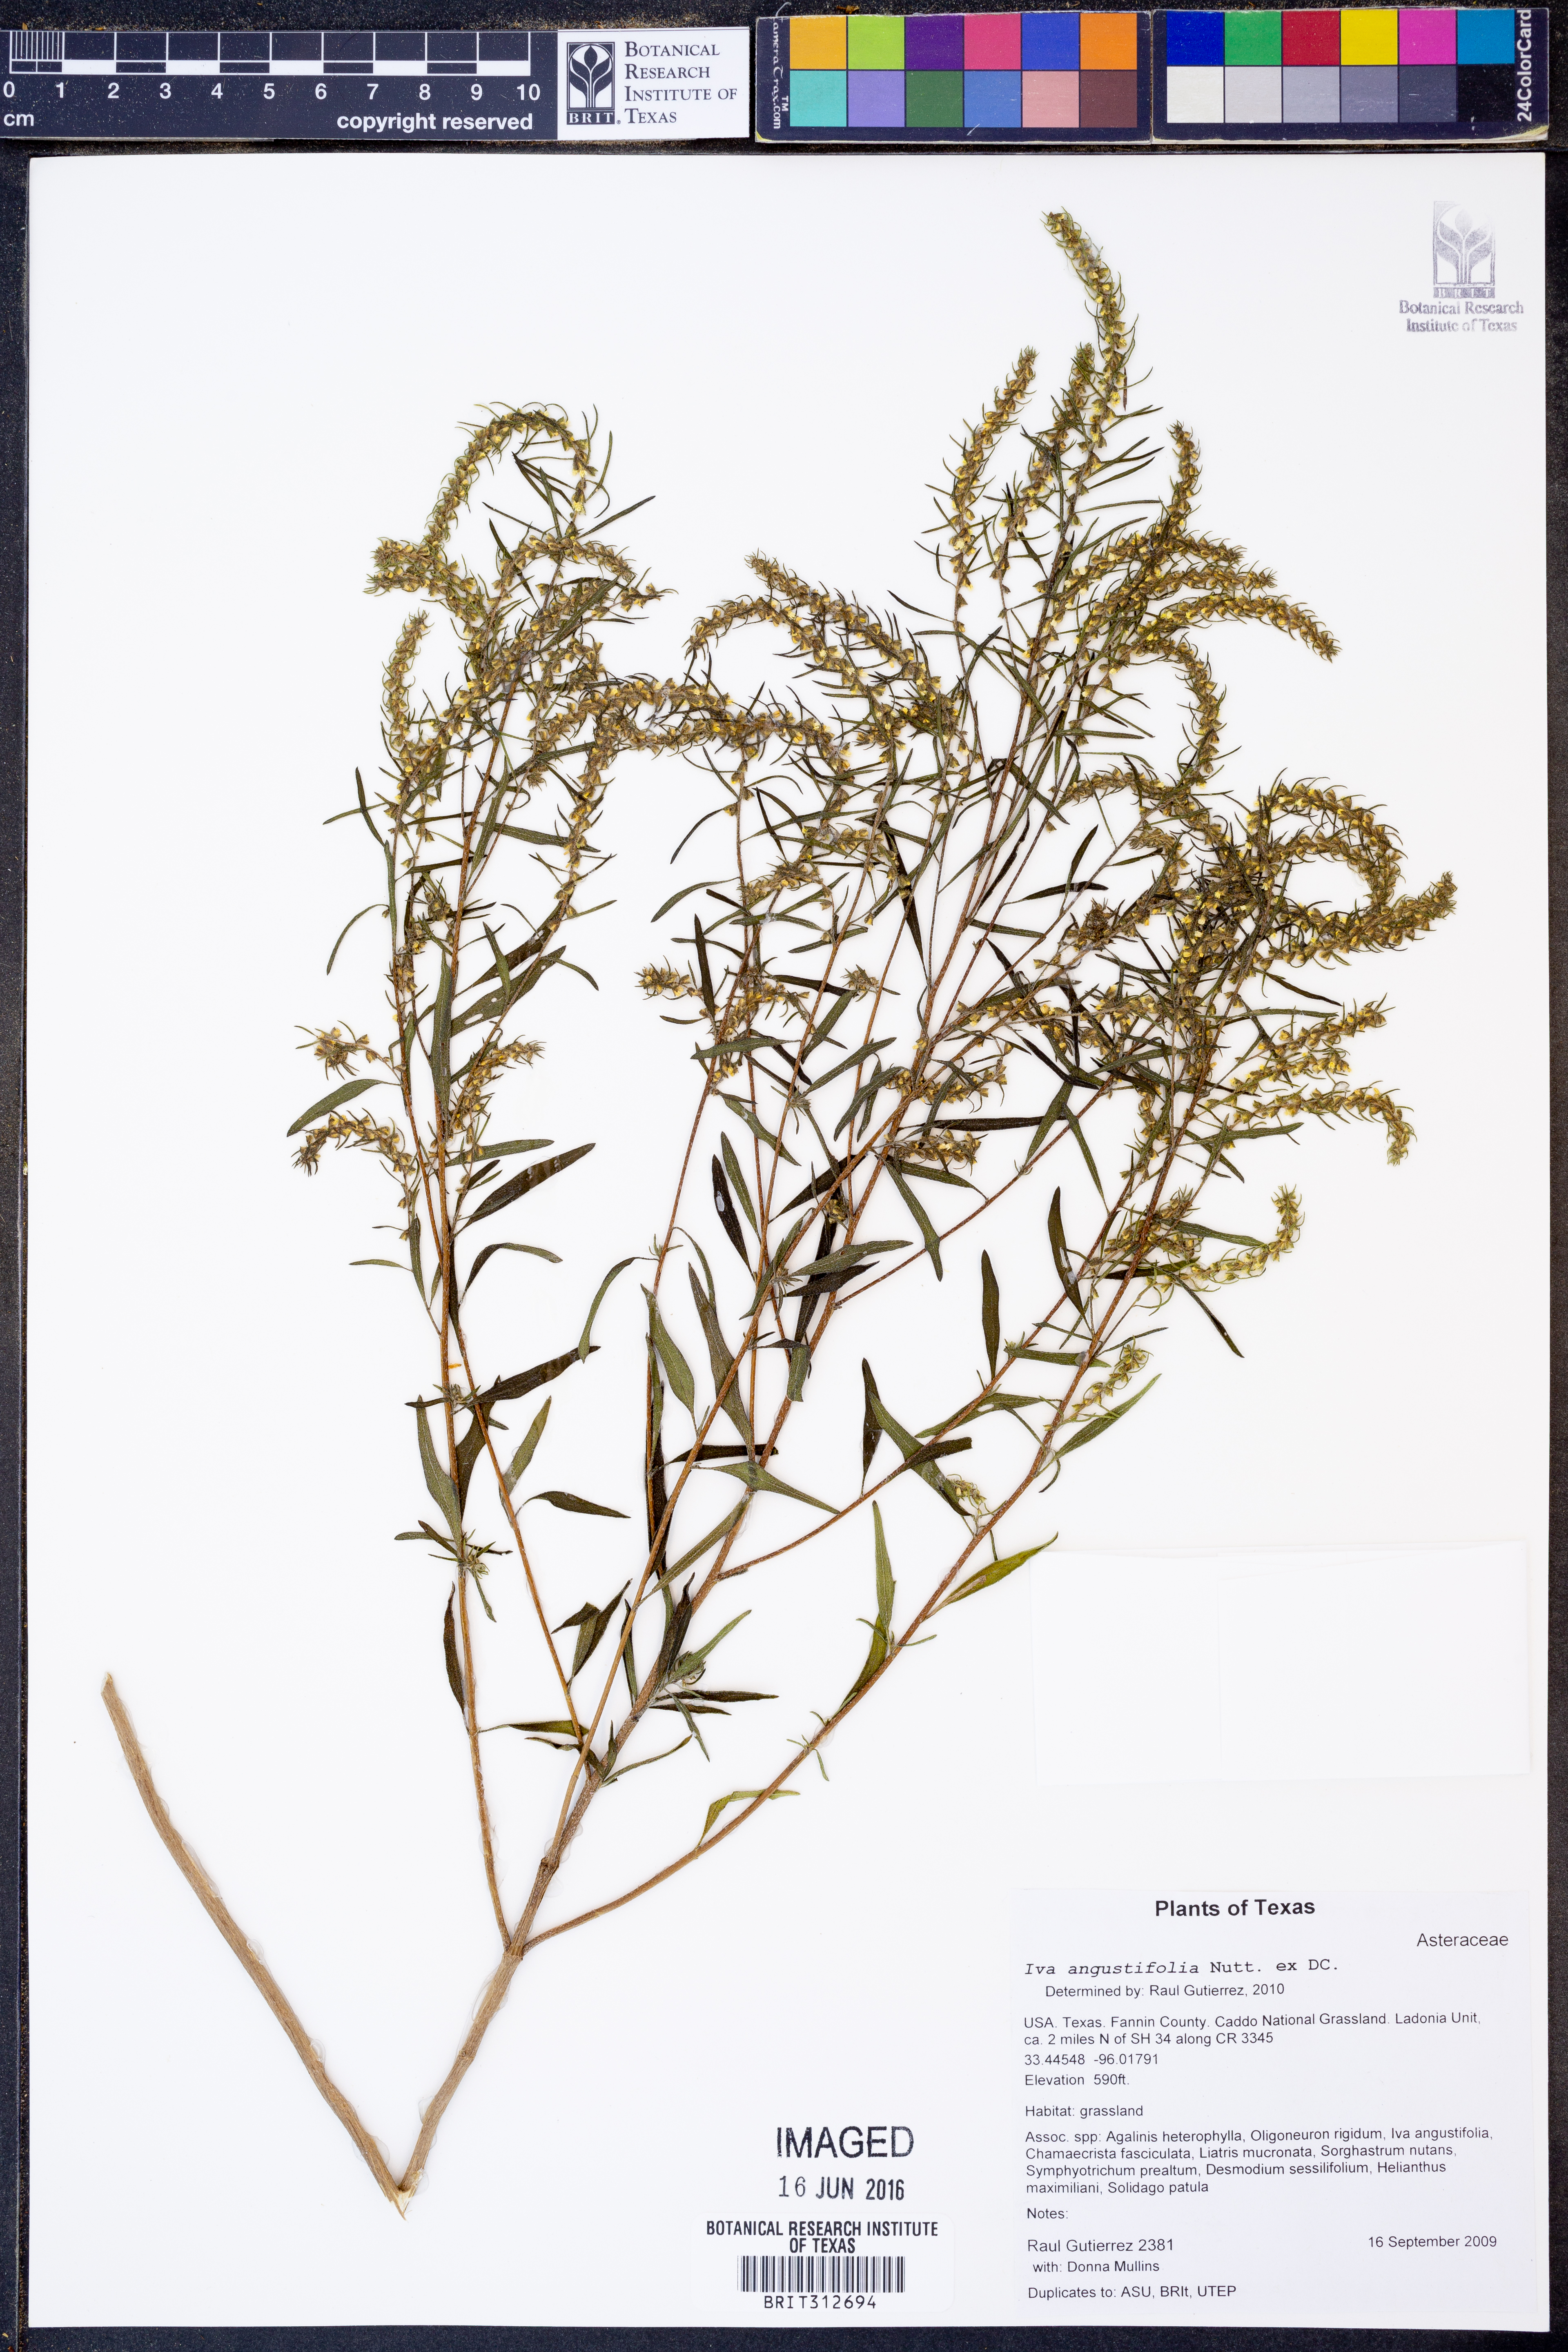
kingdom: Plantae
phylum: Tracheophyta
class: Magnoliopsida
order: Asterales
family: Asteraceae
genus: Iva
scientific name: Iva asperifolia
